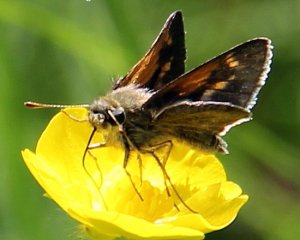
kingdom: Animalia
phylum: Arthropoda
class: Insecta
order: Lepidoptera
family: Hesperiidae
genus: Polites
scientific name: Polites themistocles
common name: Tawny-edged Skipper
